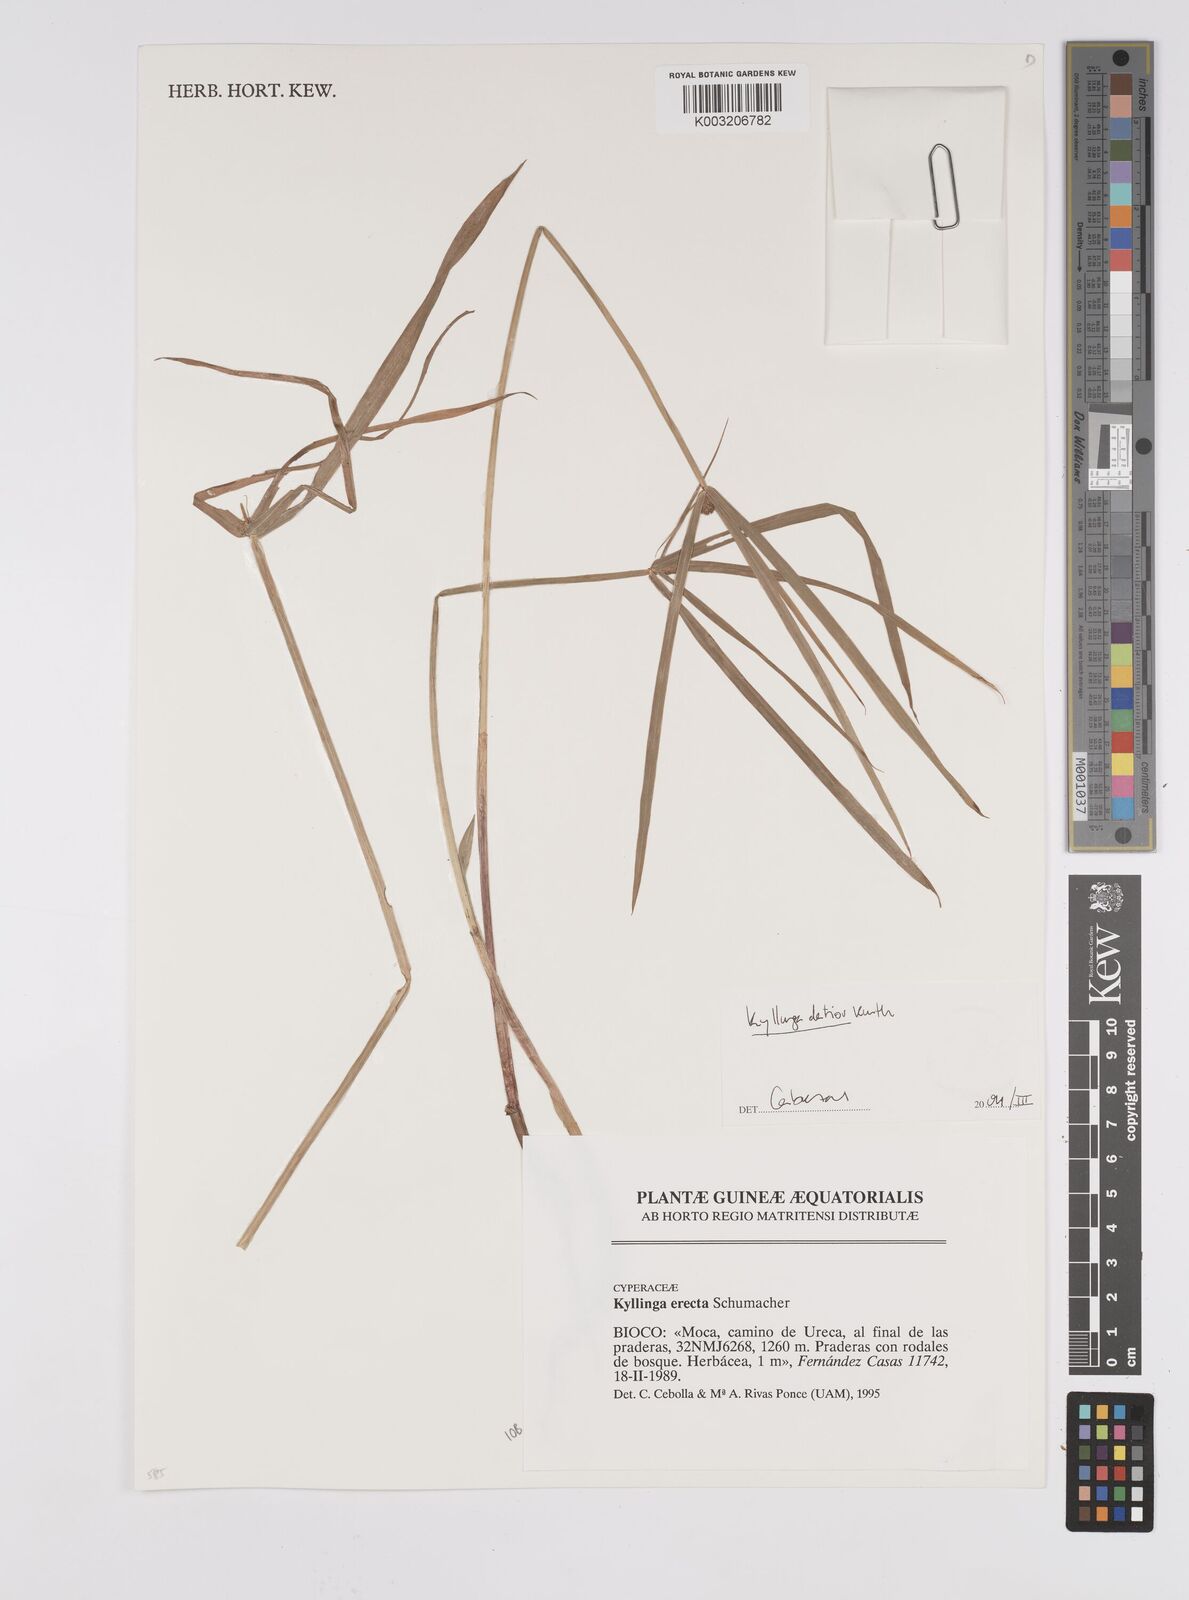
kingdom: Plantae
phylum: Tracheophyta
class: Liliopsida
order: Poales
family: Cyperaceae
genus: Cyperus
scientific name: Cyperus
